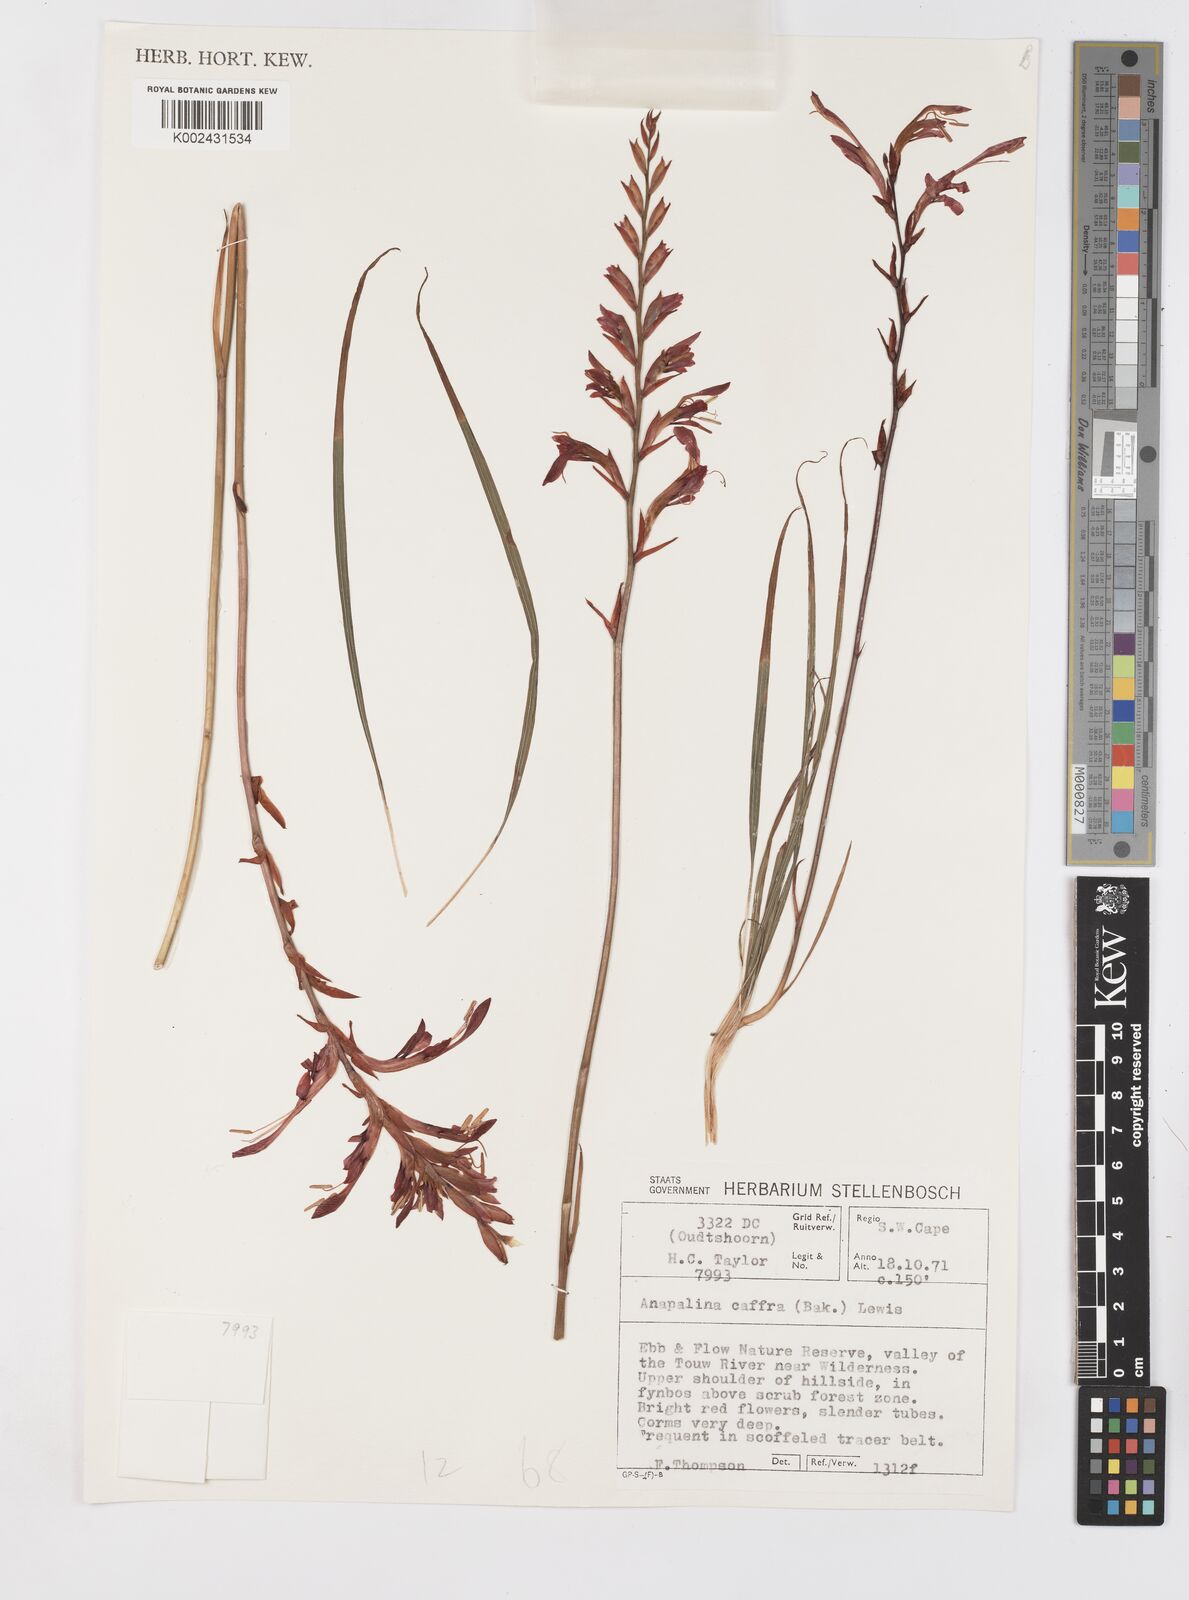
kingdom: Plantae
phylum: Tracheophyta
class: Liliopsida
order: Asparagales
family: Iridaceae
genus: Tritoniopsis
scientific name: Tritoniopsis caffra
